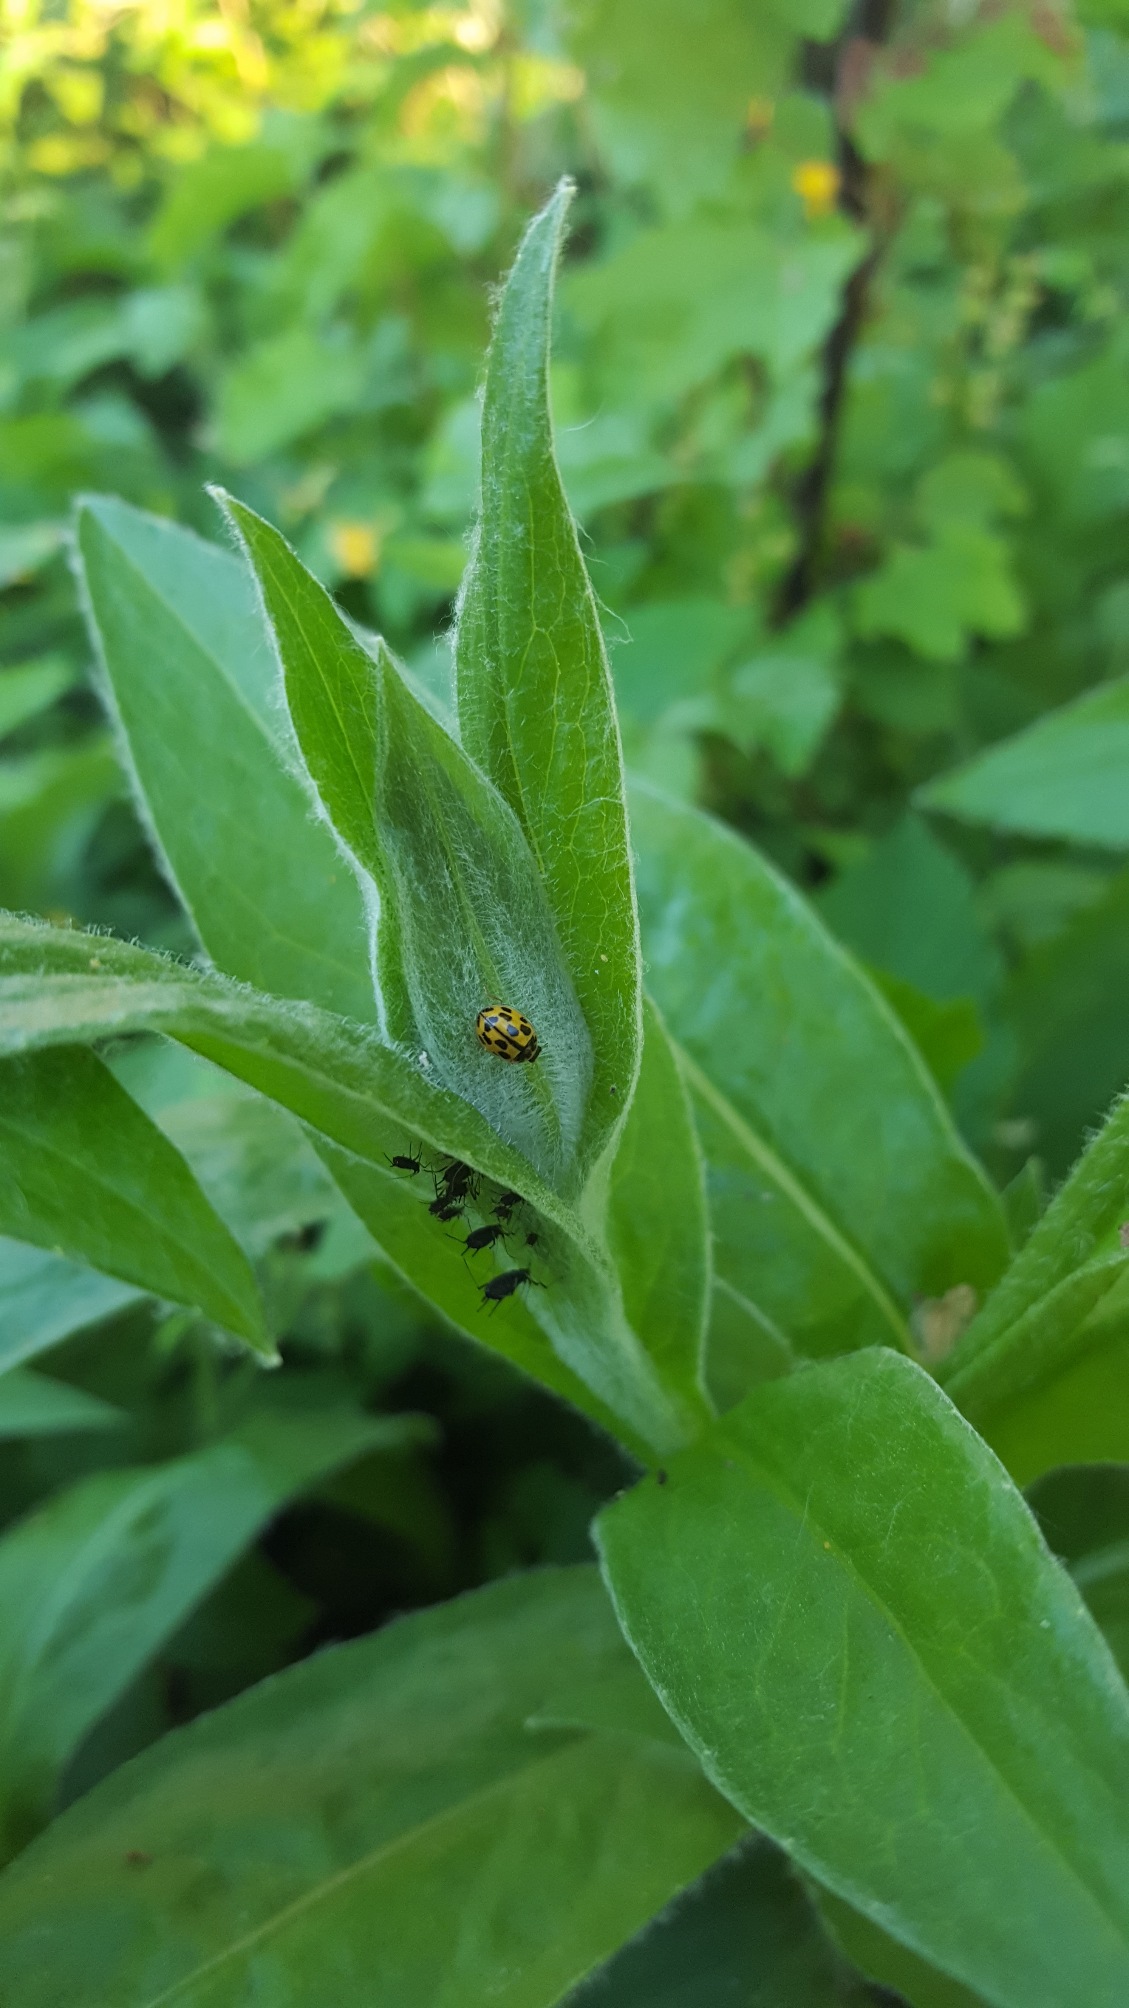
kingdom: Animalia
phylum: Arthropoda
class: Insecta
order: Coleoptera
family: Coccinellidae
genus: Propylaea
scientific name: Propylaea quatuordecimpunctata
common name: Skakbræt
